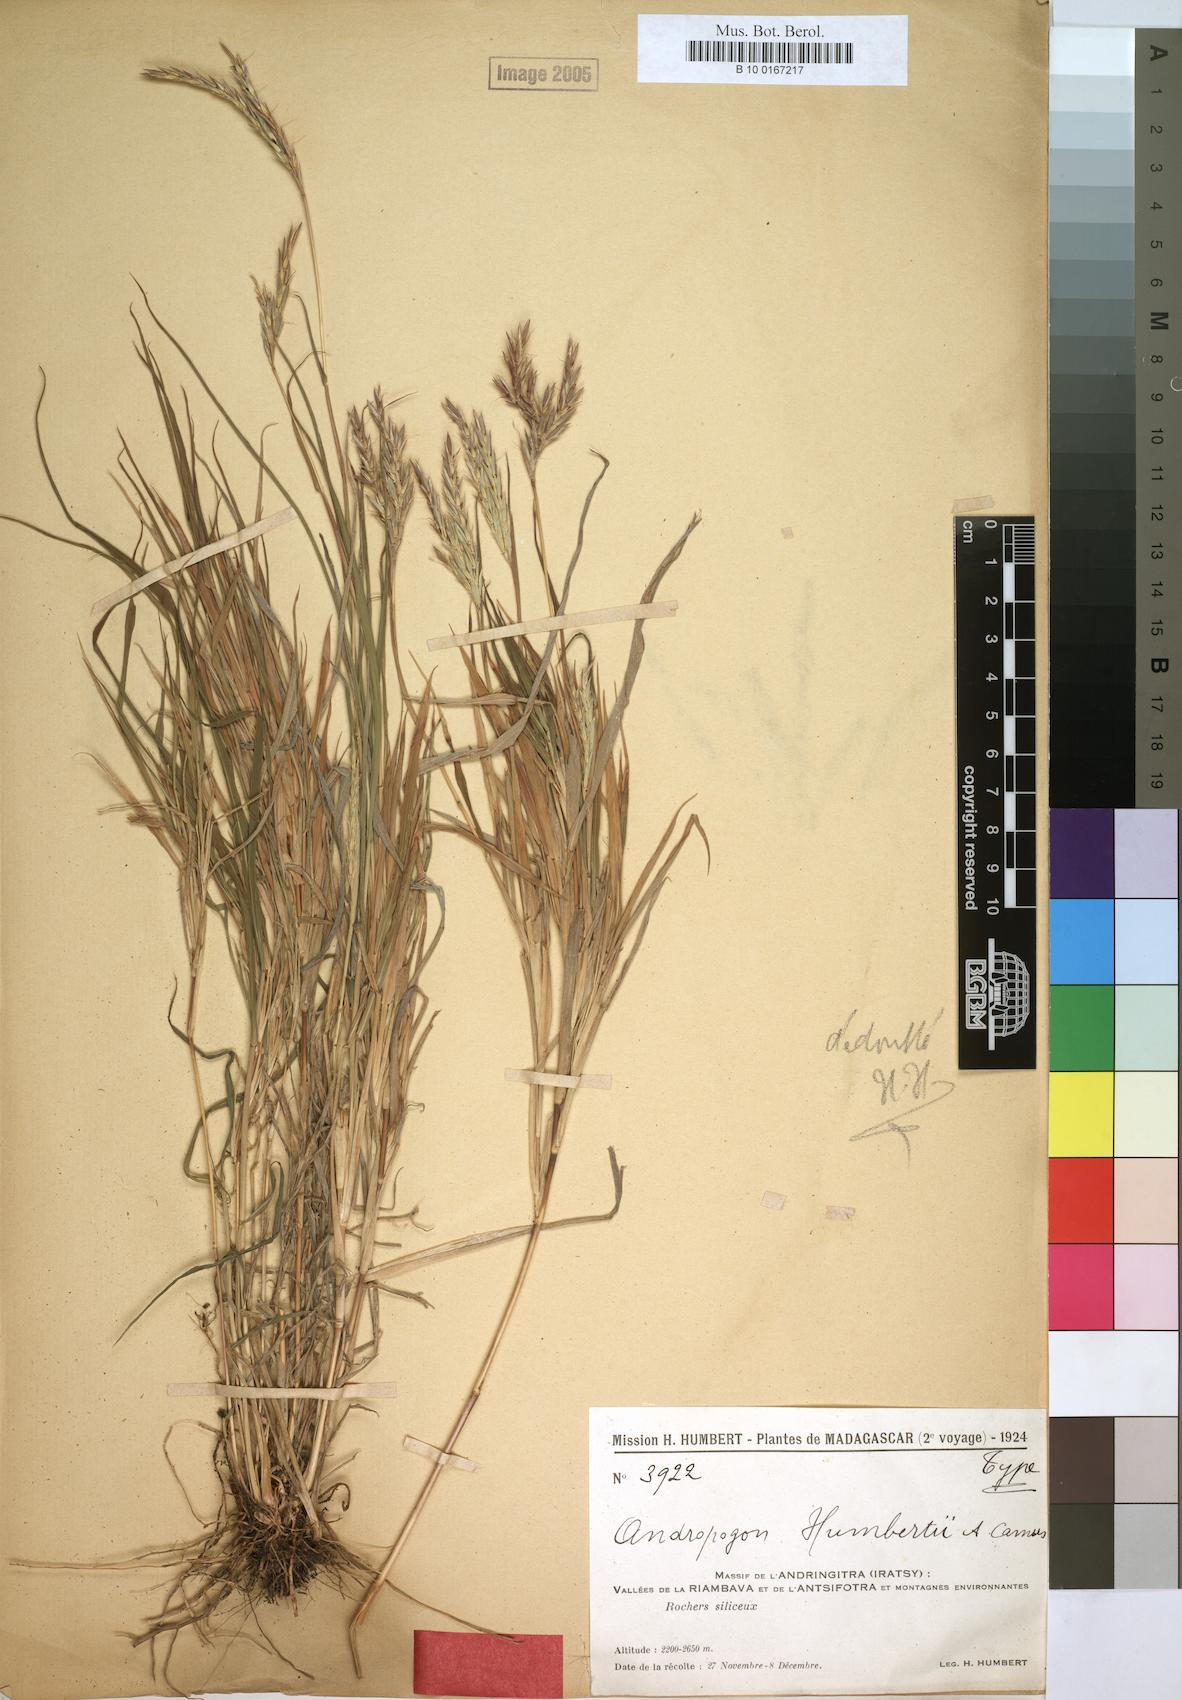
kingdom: Plantae
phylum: Tracheophyta
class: Liliopsida
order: Poales
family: Poaceae
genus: Andropogon
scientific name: Andropogon andringitrensis
